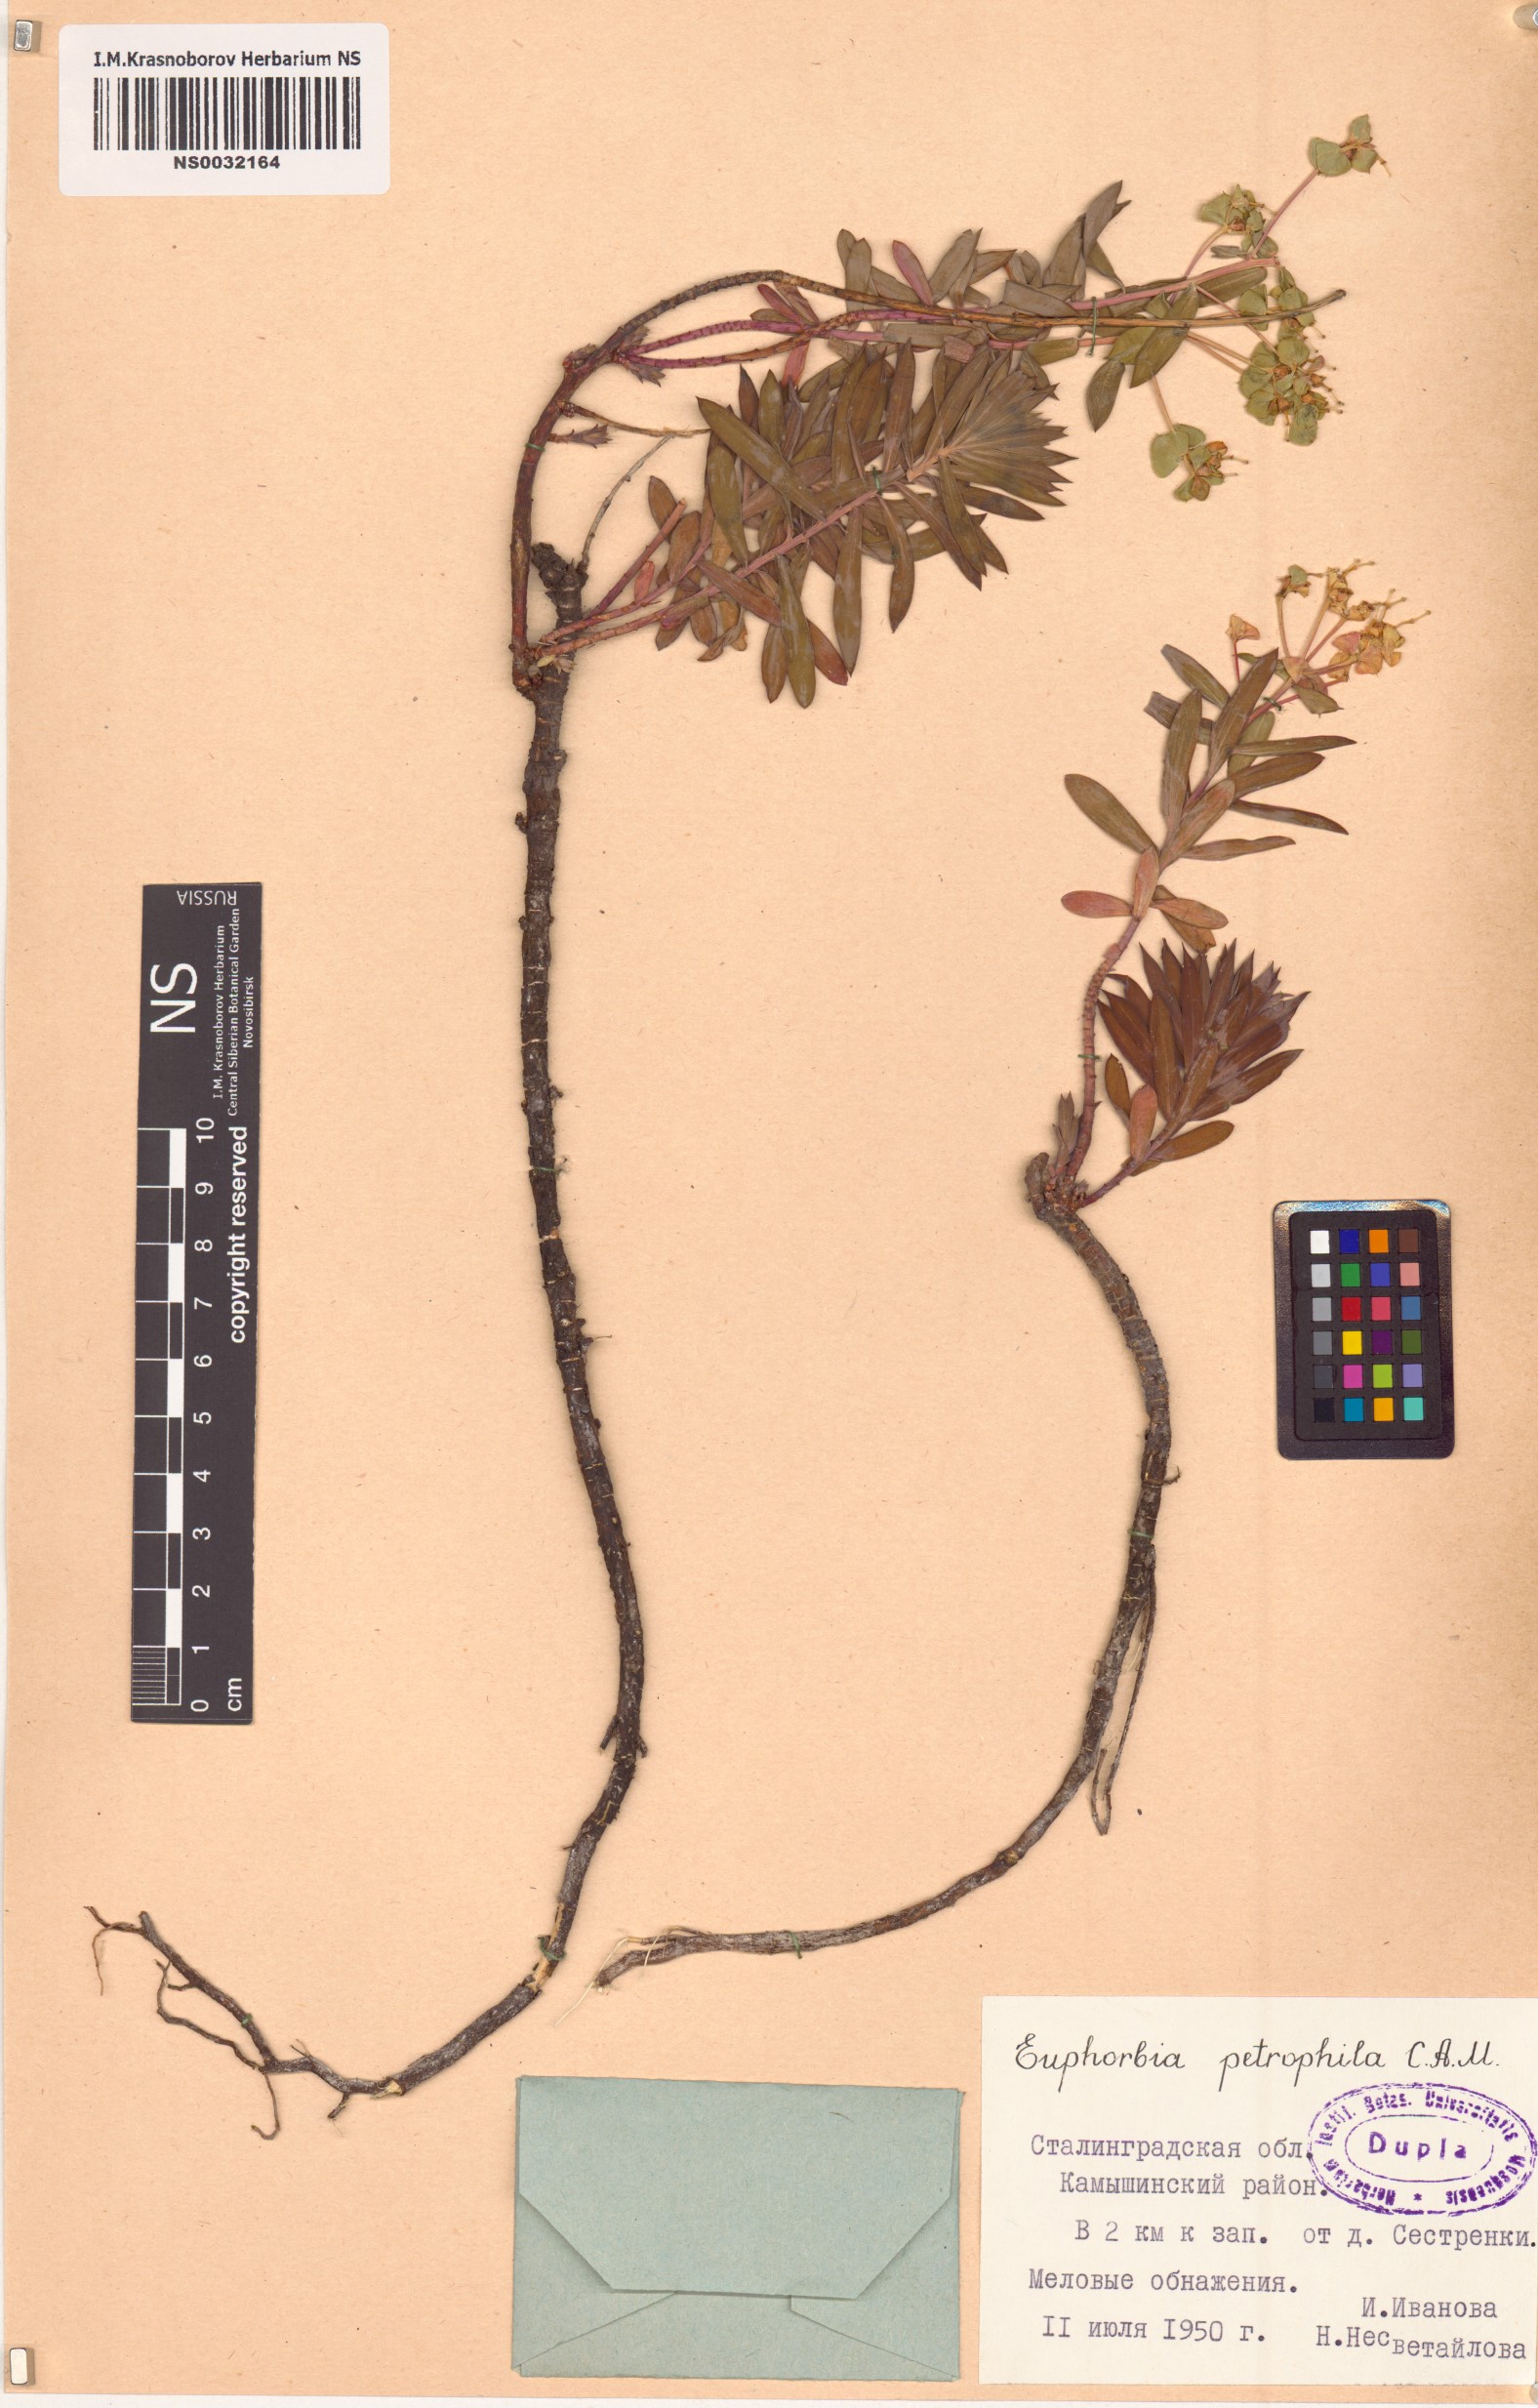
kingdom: Plantae
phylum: Tracheophyta
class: Magnoliopsida
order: Malpighiales
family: Euphorbiaceae
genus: Euphorbia
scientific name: Euphorbia petrophila
